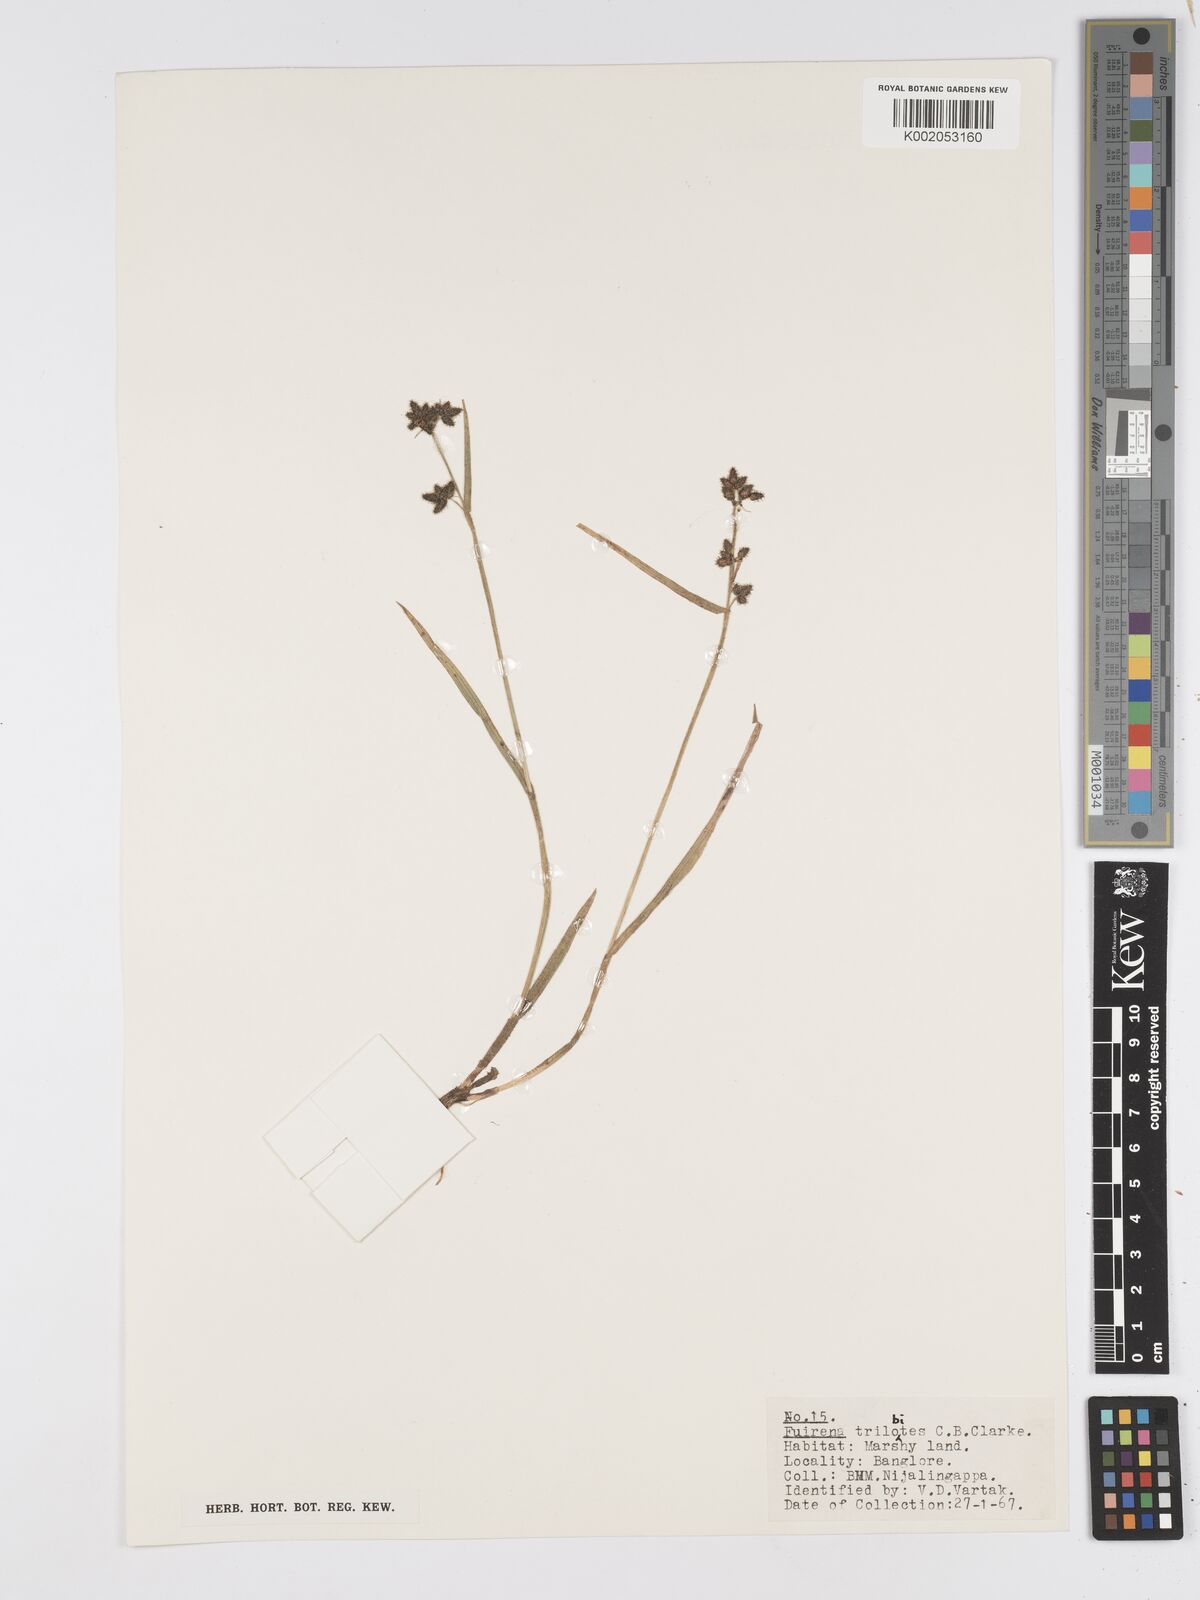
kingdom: Plantae
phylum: Tracheophyta
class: Liliopsida
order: Poales
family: Cyperaceae
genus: Fuirena
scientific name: Fuirena trilobites
